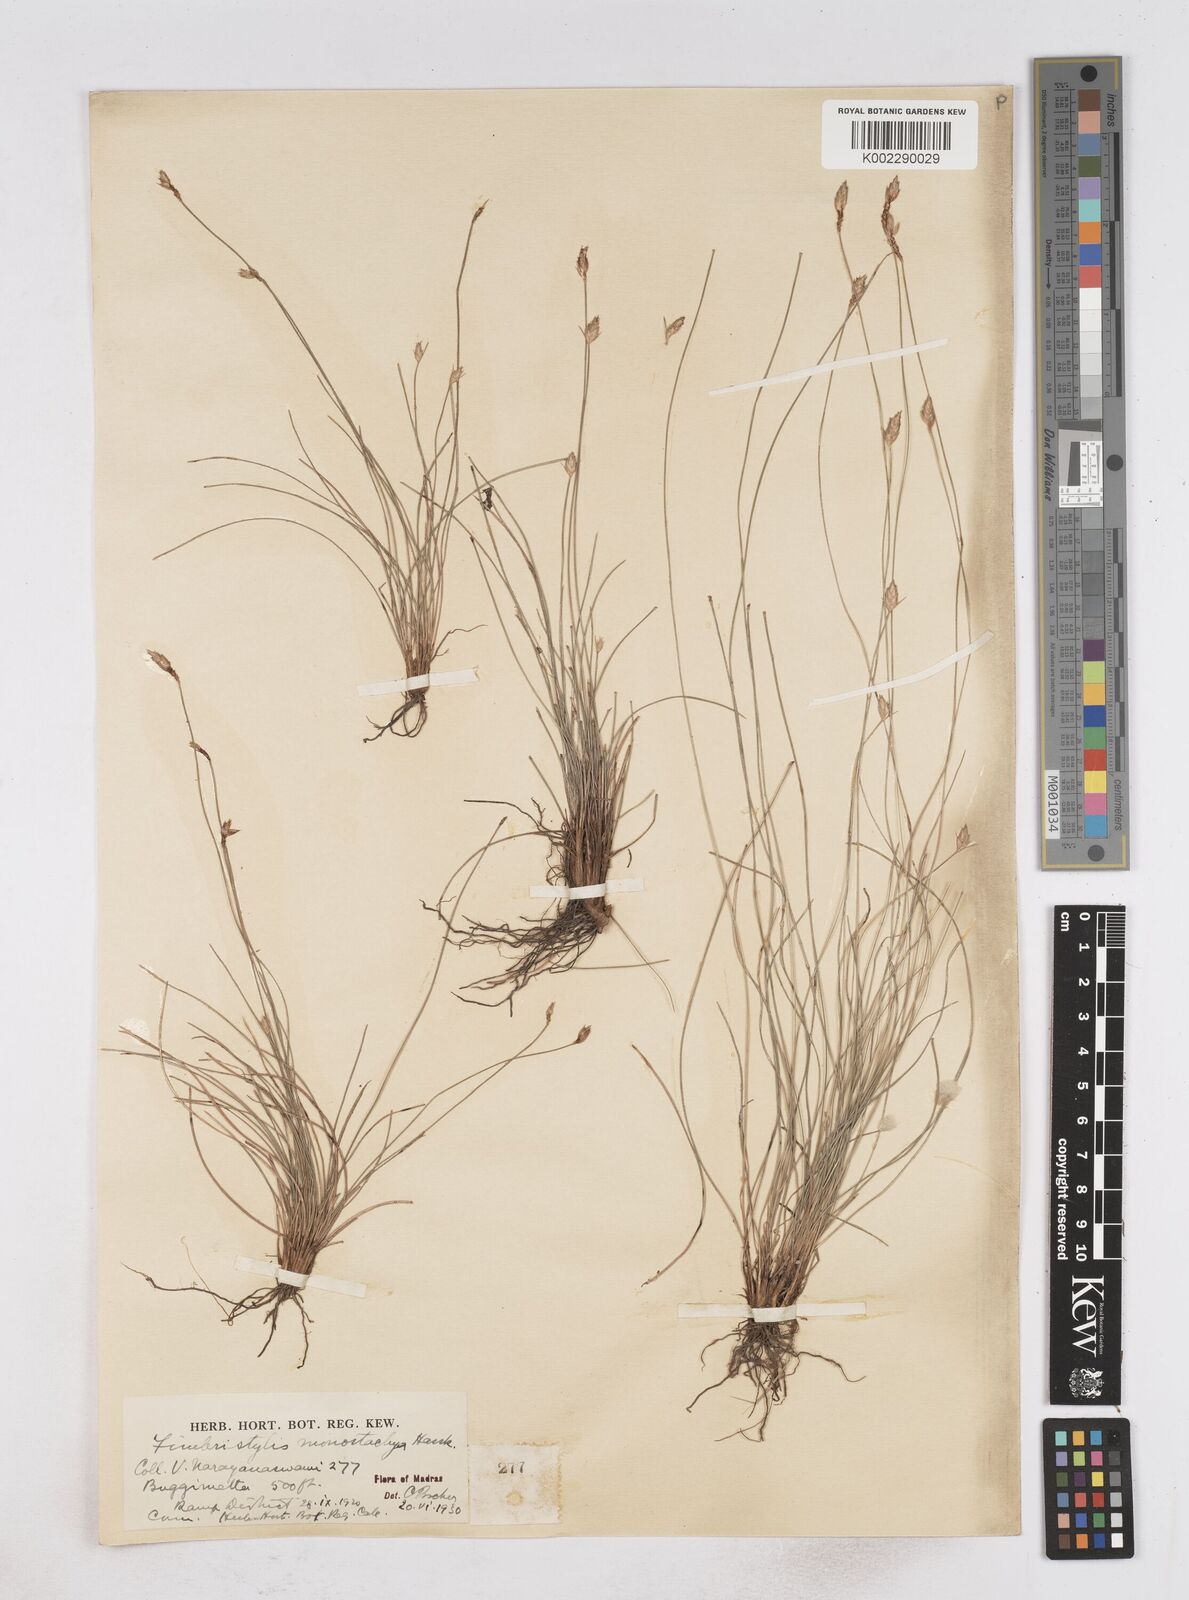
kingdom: Plantae
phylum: Tracheophyta
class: Liliopsida
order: Poales
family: Cyperaceae
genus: Abildgaardia
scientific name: Abildgaardia ovata
